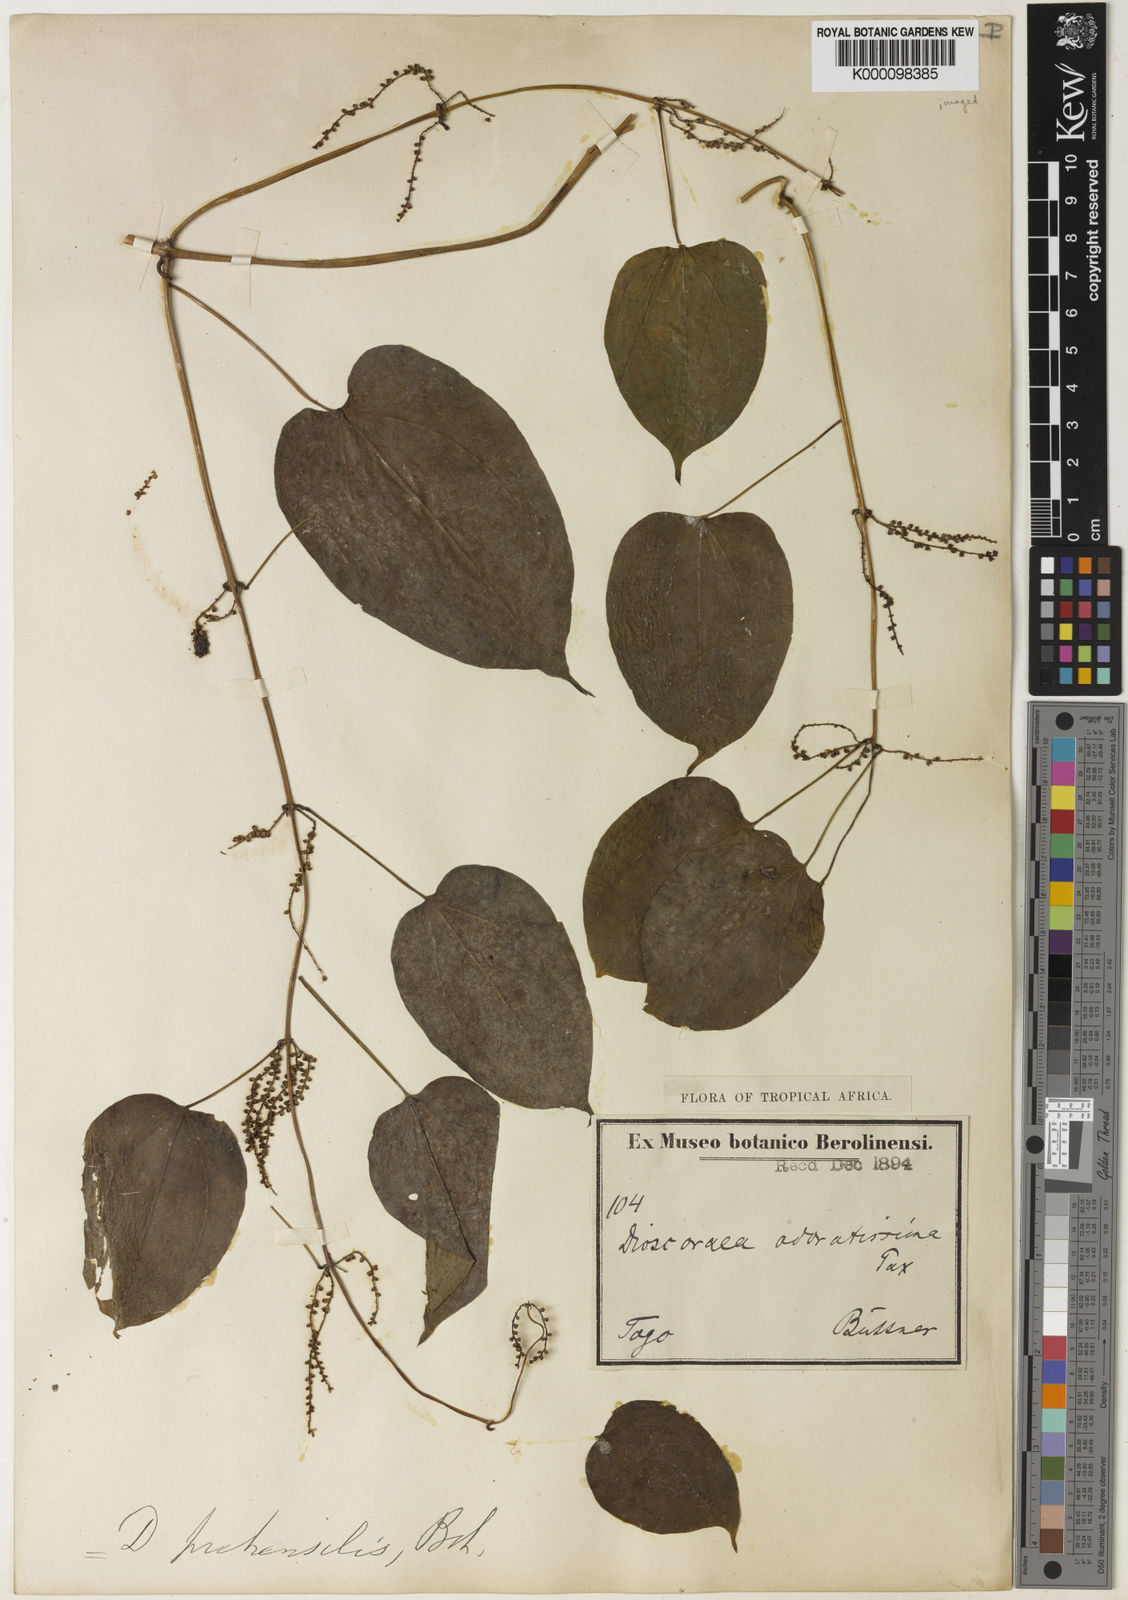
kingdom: Plantae
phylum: Tracheophyta
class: Liliopsida
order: Dioscoreales
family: Dioscoreaceae
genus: Dioscorea
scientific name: Dioscorea praehensilis
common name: Bush yam
